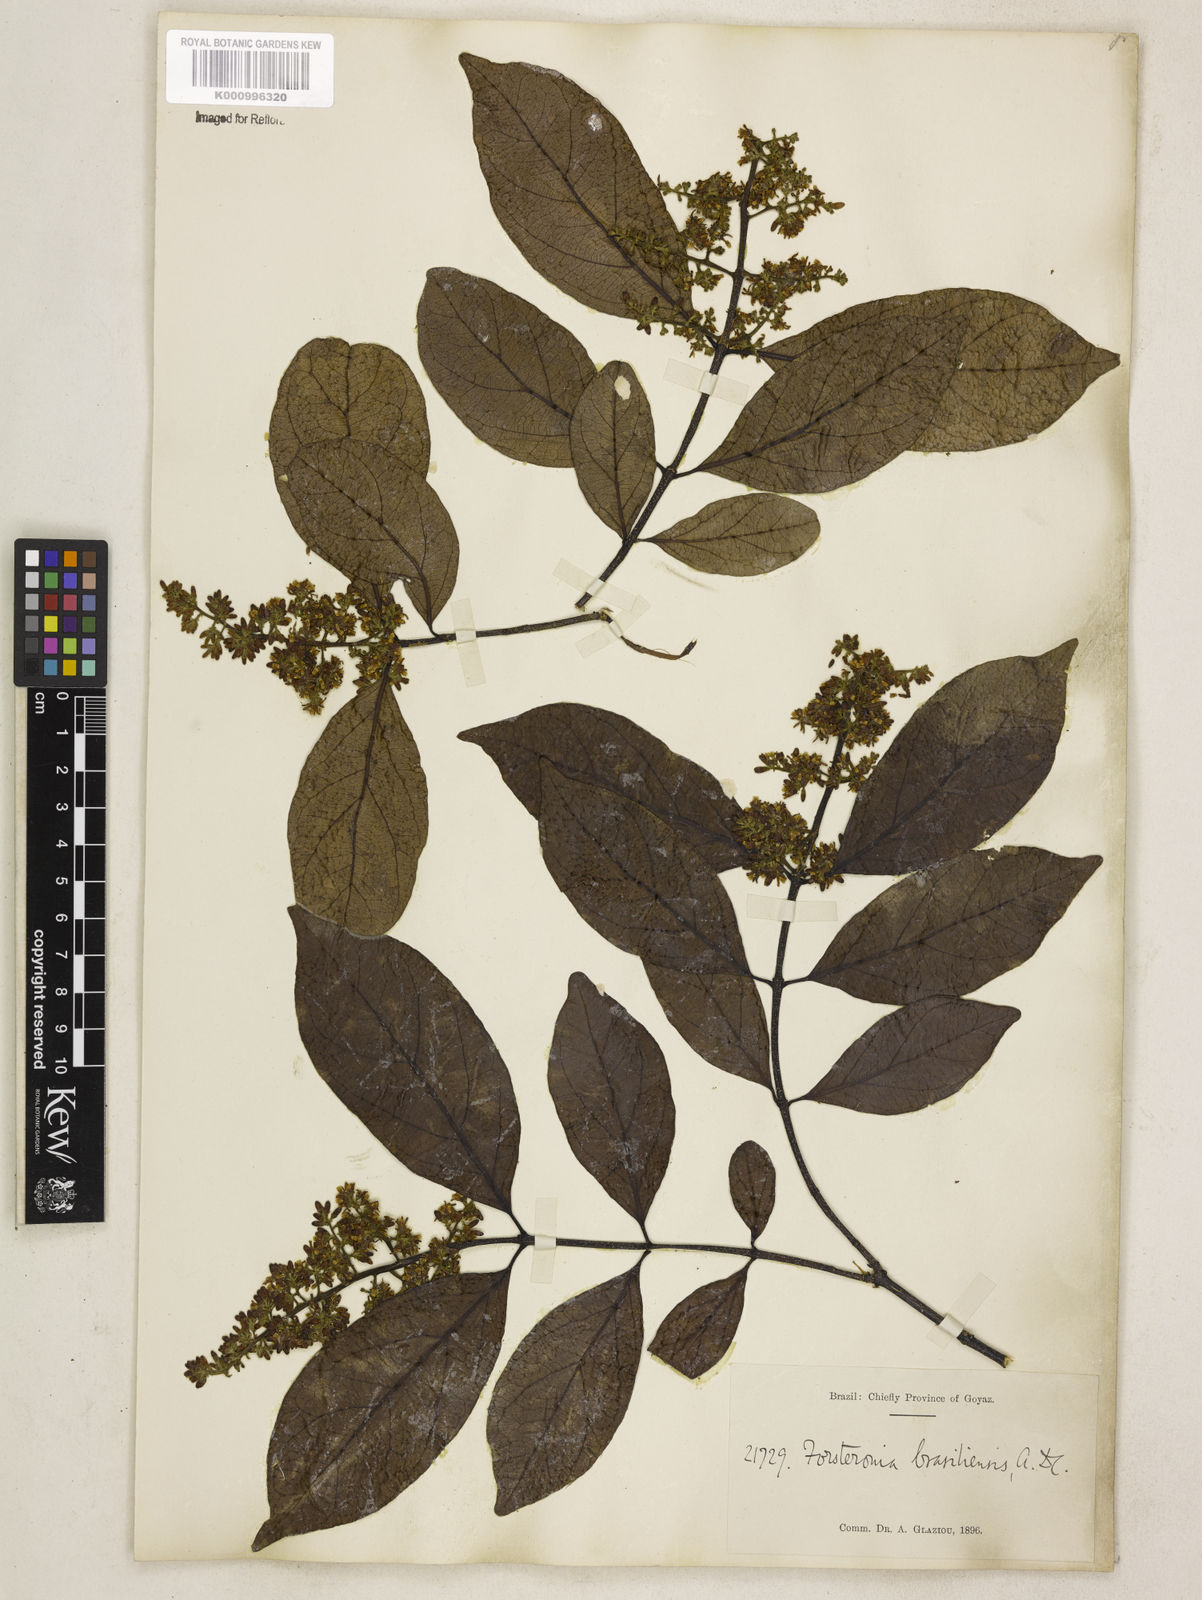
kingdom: Plantae
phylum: Tracheophyta
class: Magnoliopsida
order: Gentianales
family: Apocynaceae
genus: Forsteronia
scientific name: Forsteronia
